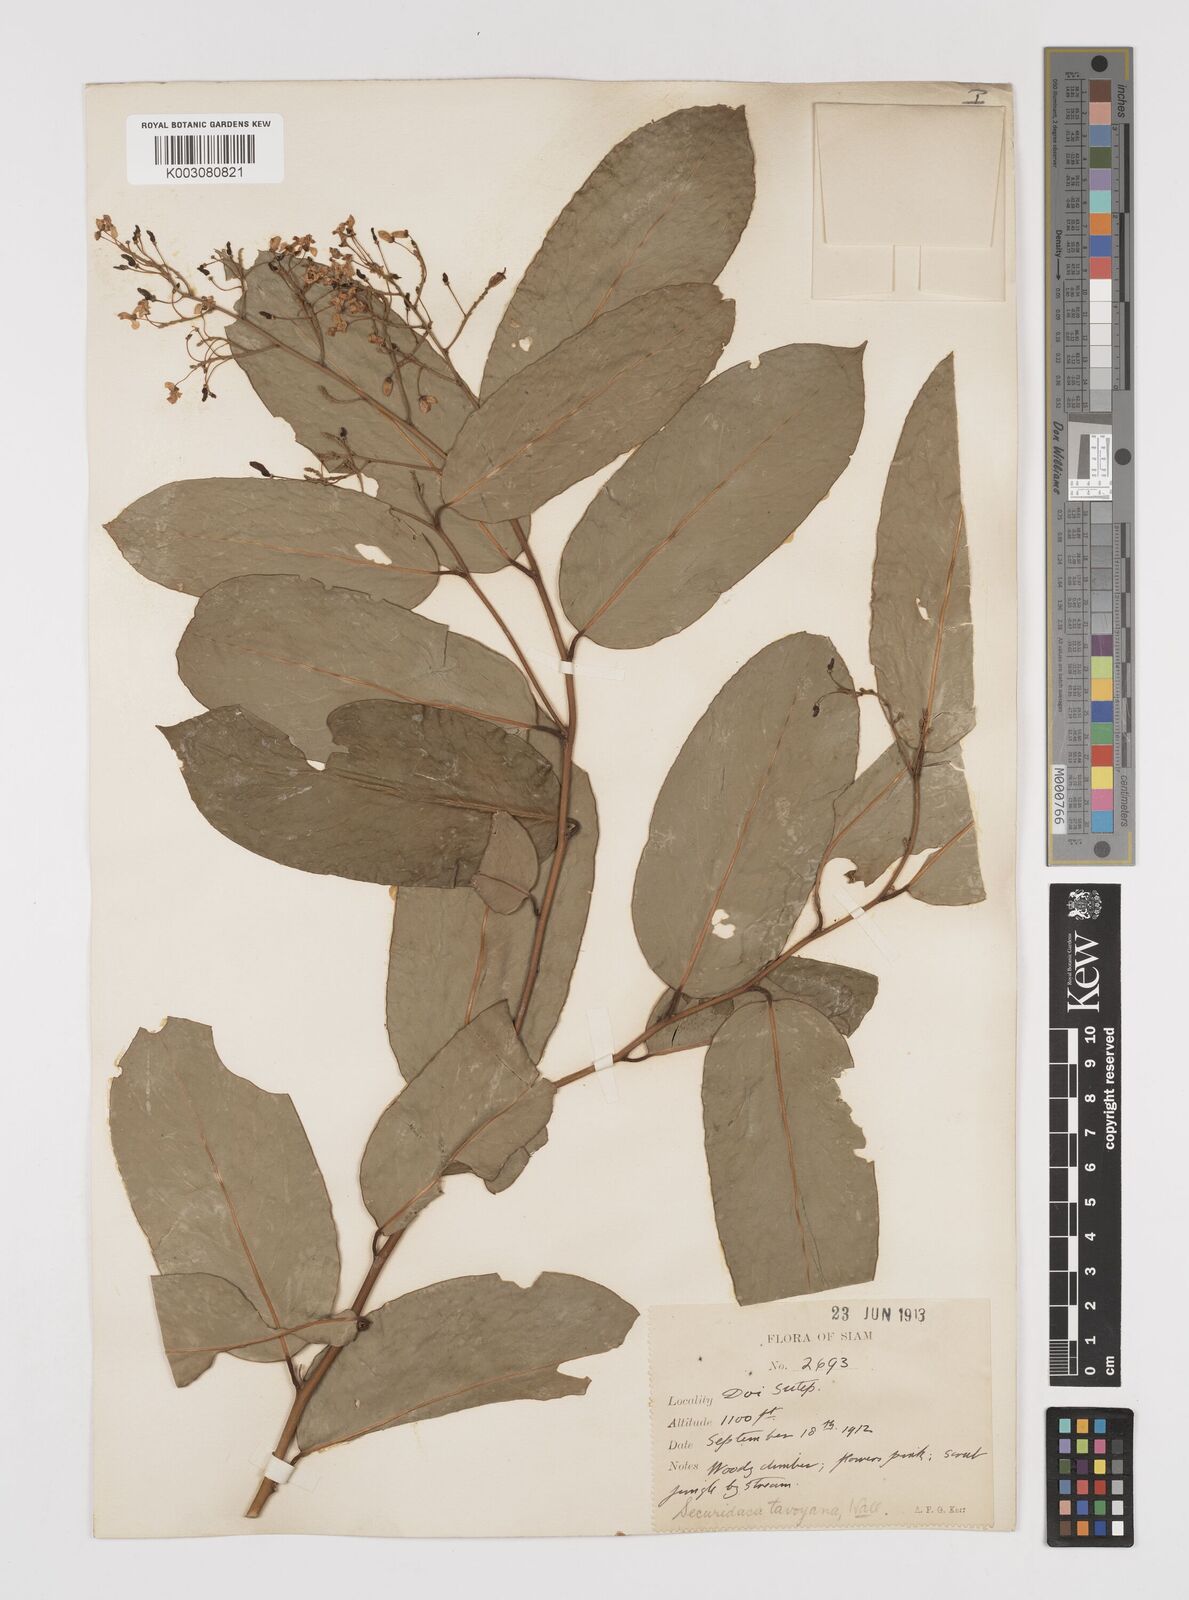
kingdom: Plantae
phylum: Tracheophyta
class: Magnoliopsida
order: Fabales
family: Polygalaceae
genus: Securidaca
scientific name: Securidaca inappendiculata
